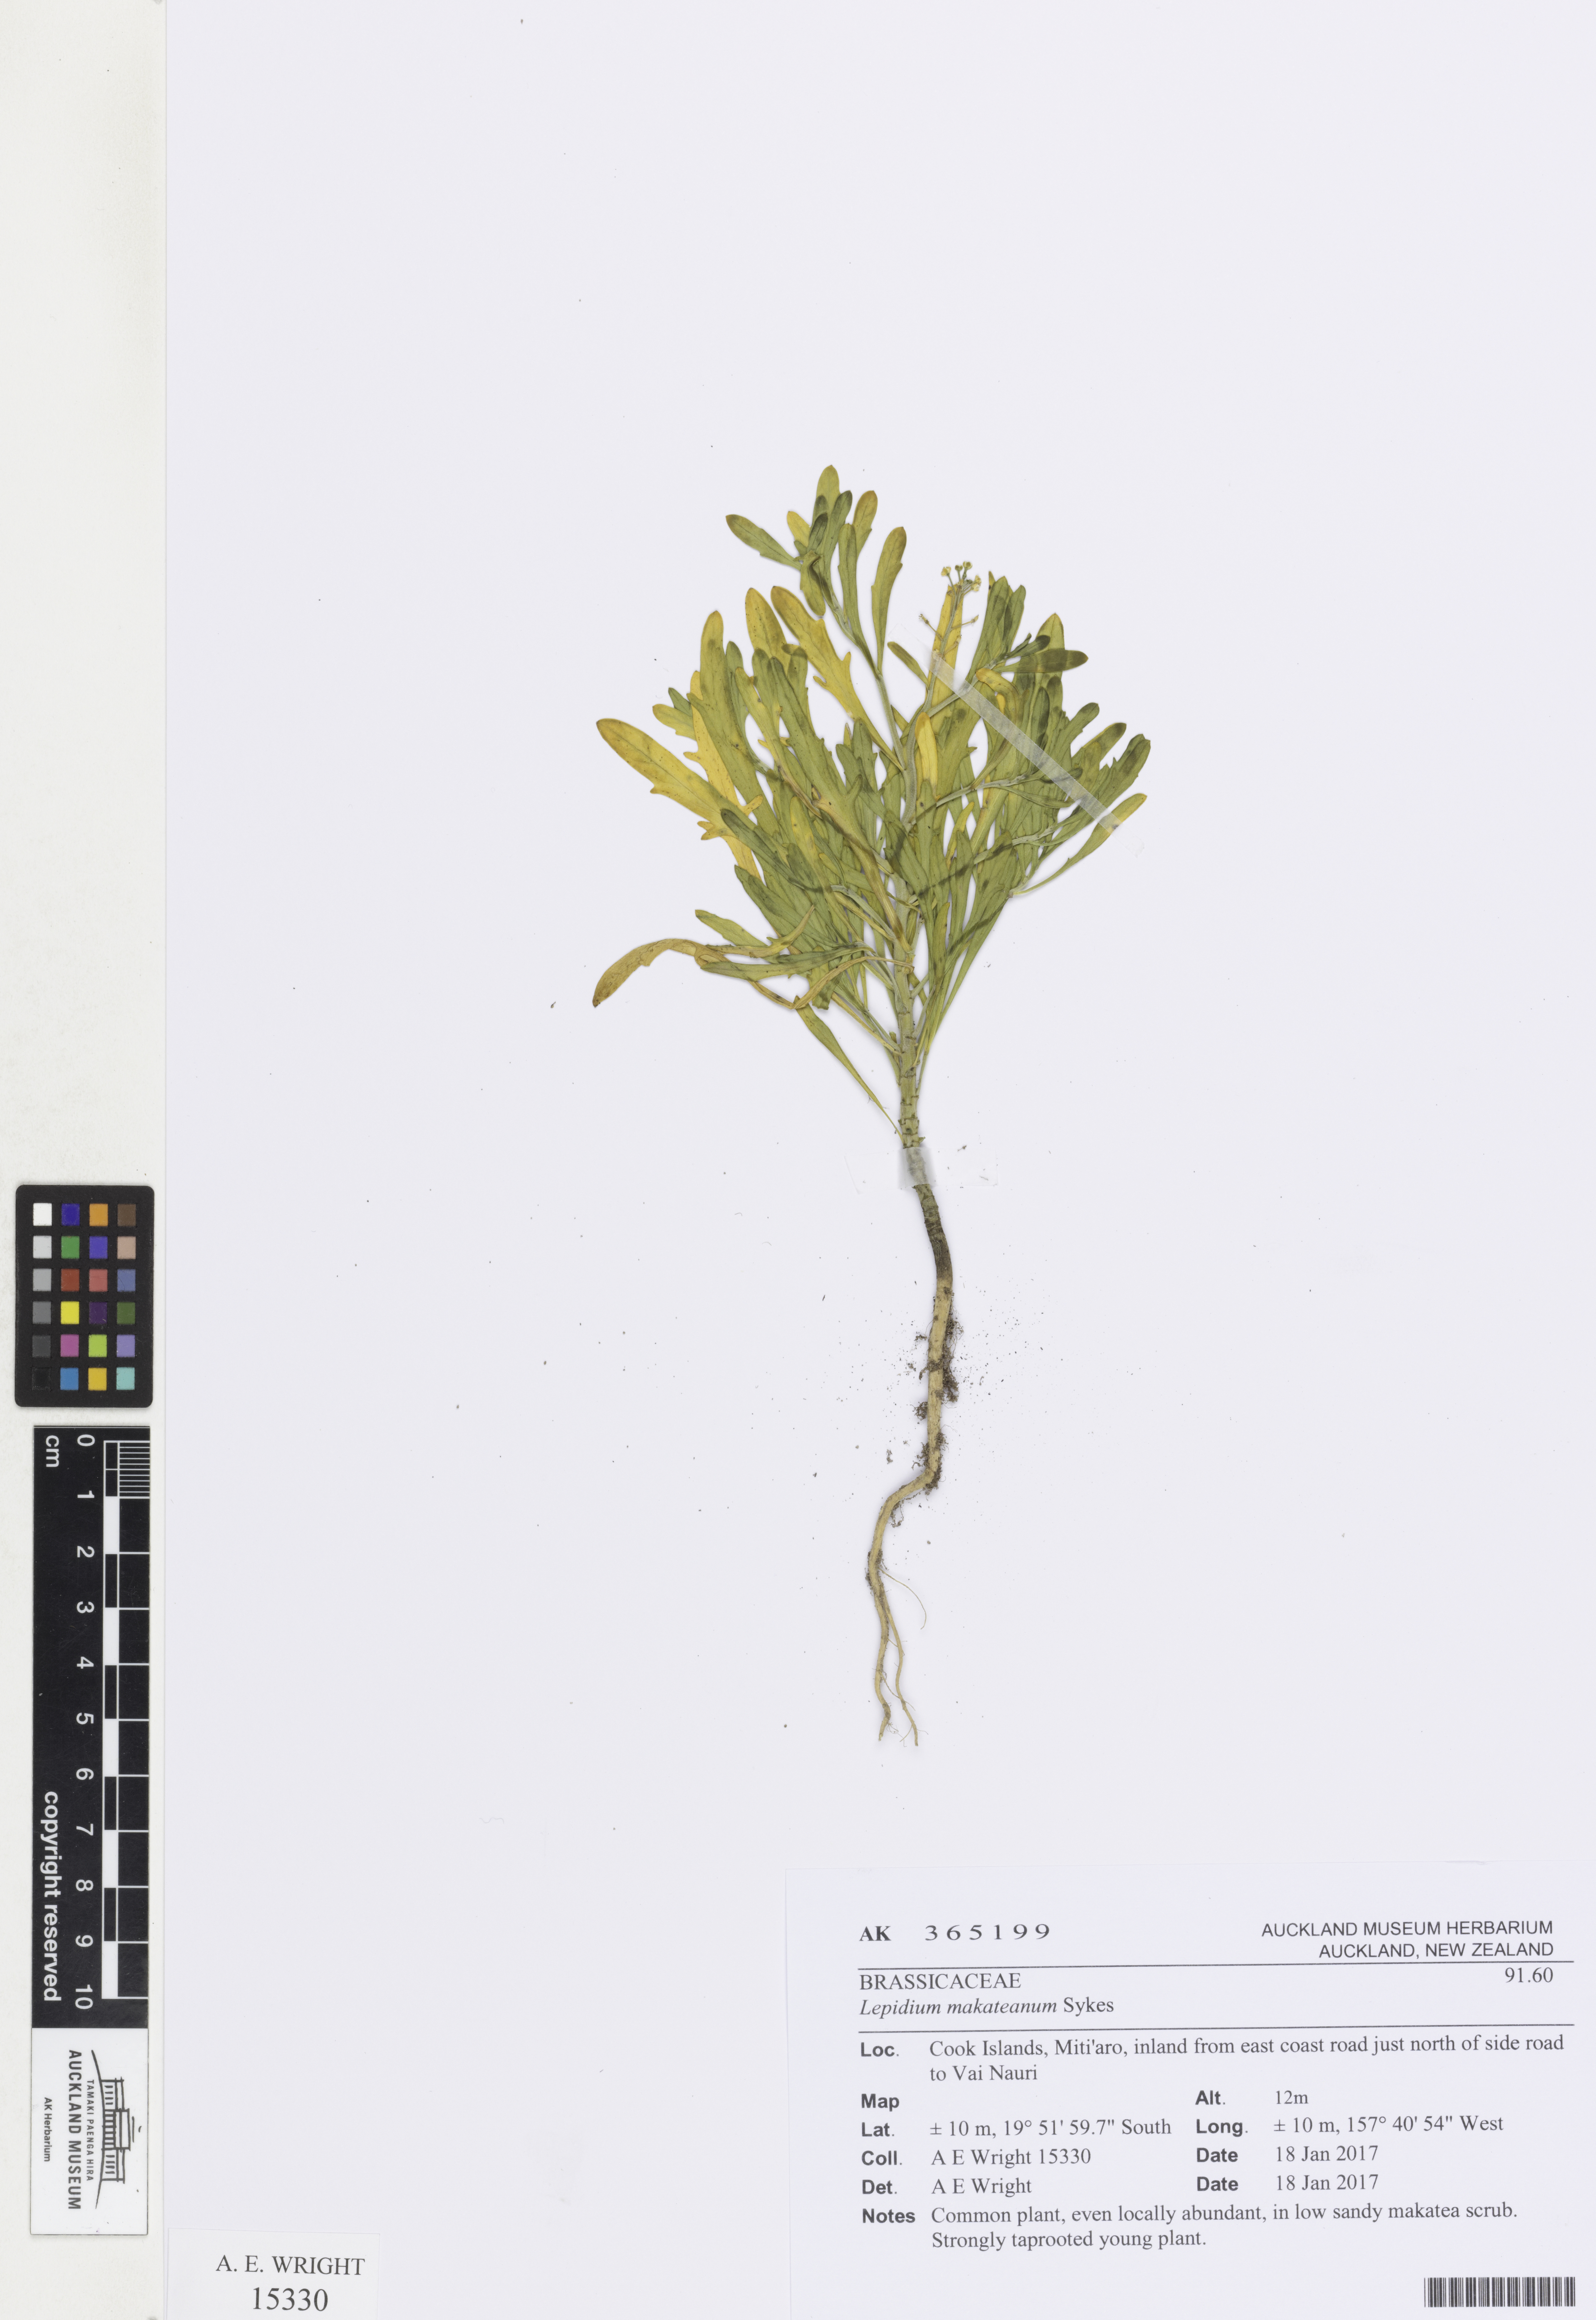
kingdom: Plantae
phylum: Tracheophyta
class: Magnoliopsida
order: Brassicales
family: Brassicaceae
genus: Lepidium
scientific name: Lepidium makateanum
